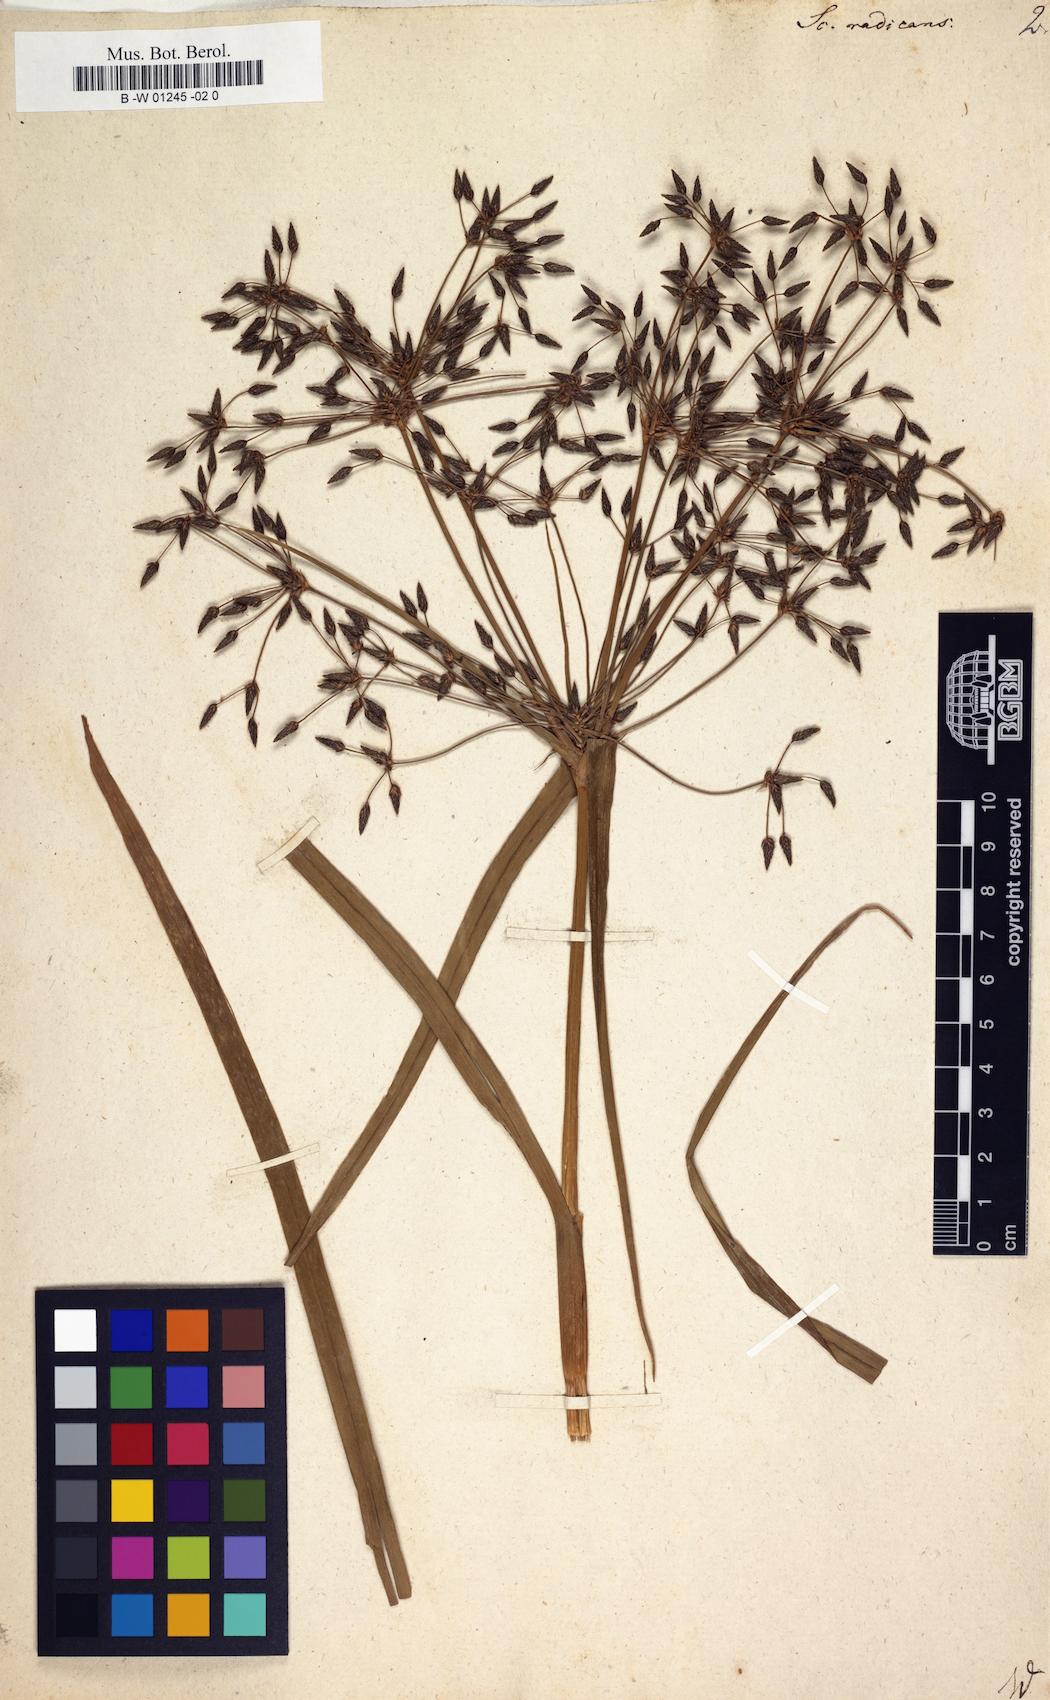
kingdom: Plantae
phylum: Tracheophyta
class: Liliopsida
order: Poales
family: Cyperaceae
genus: Scirpus
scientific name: Scirpus radicans
